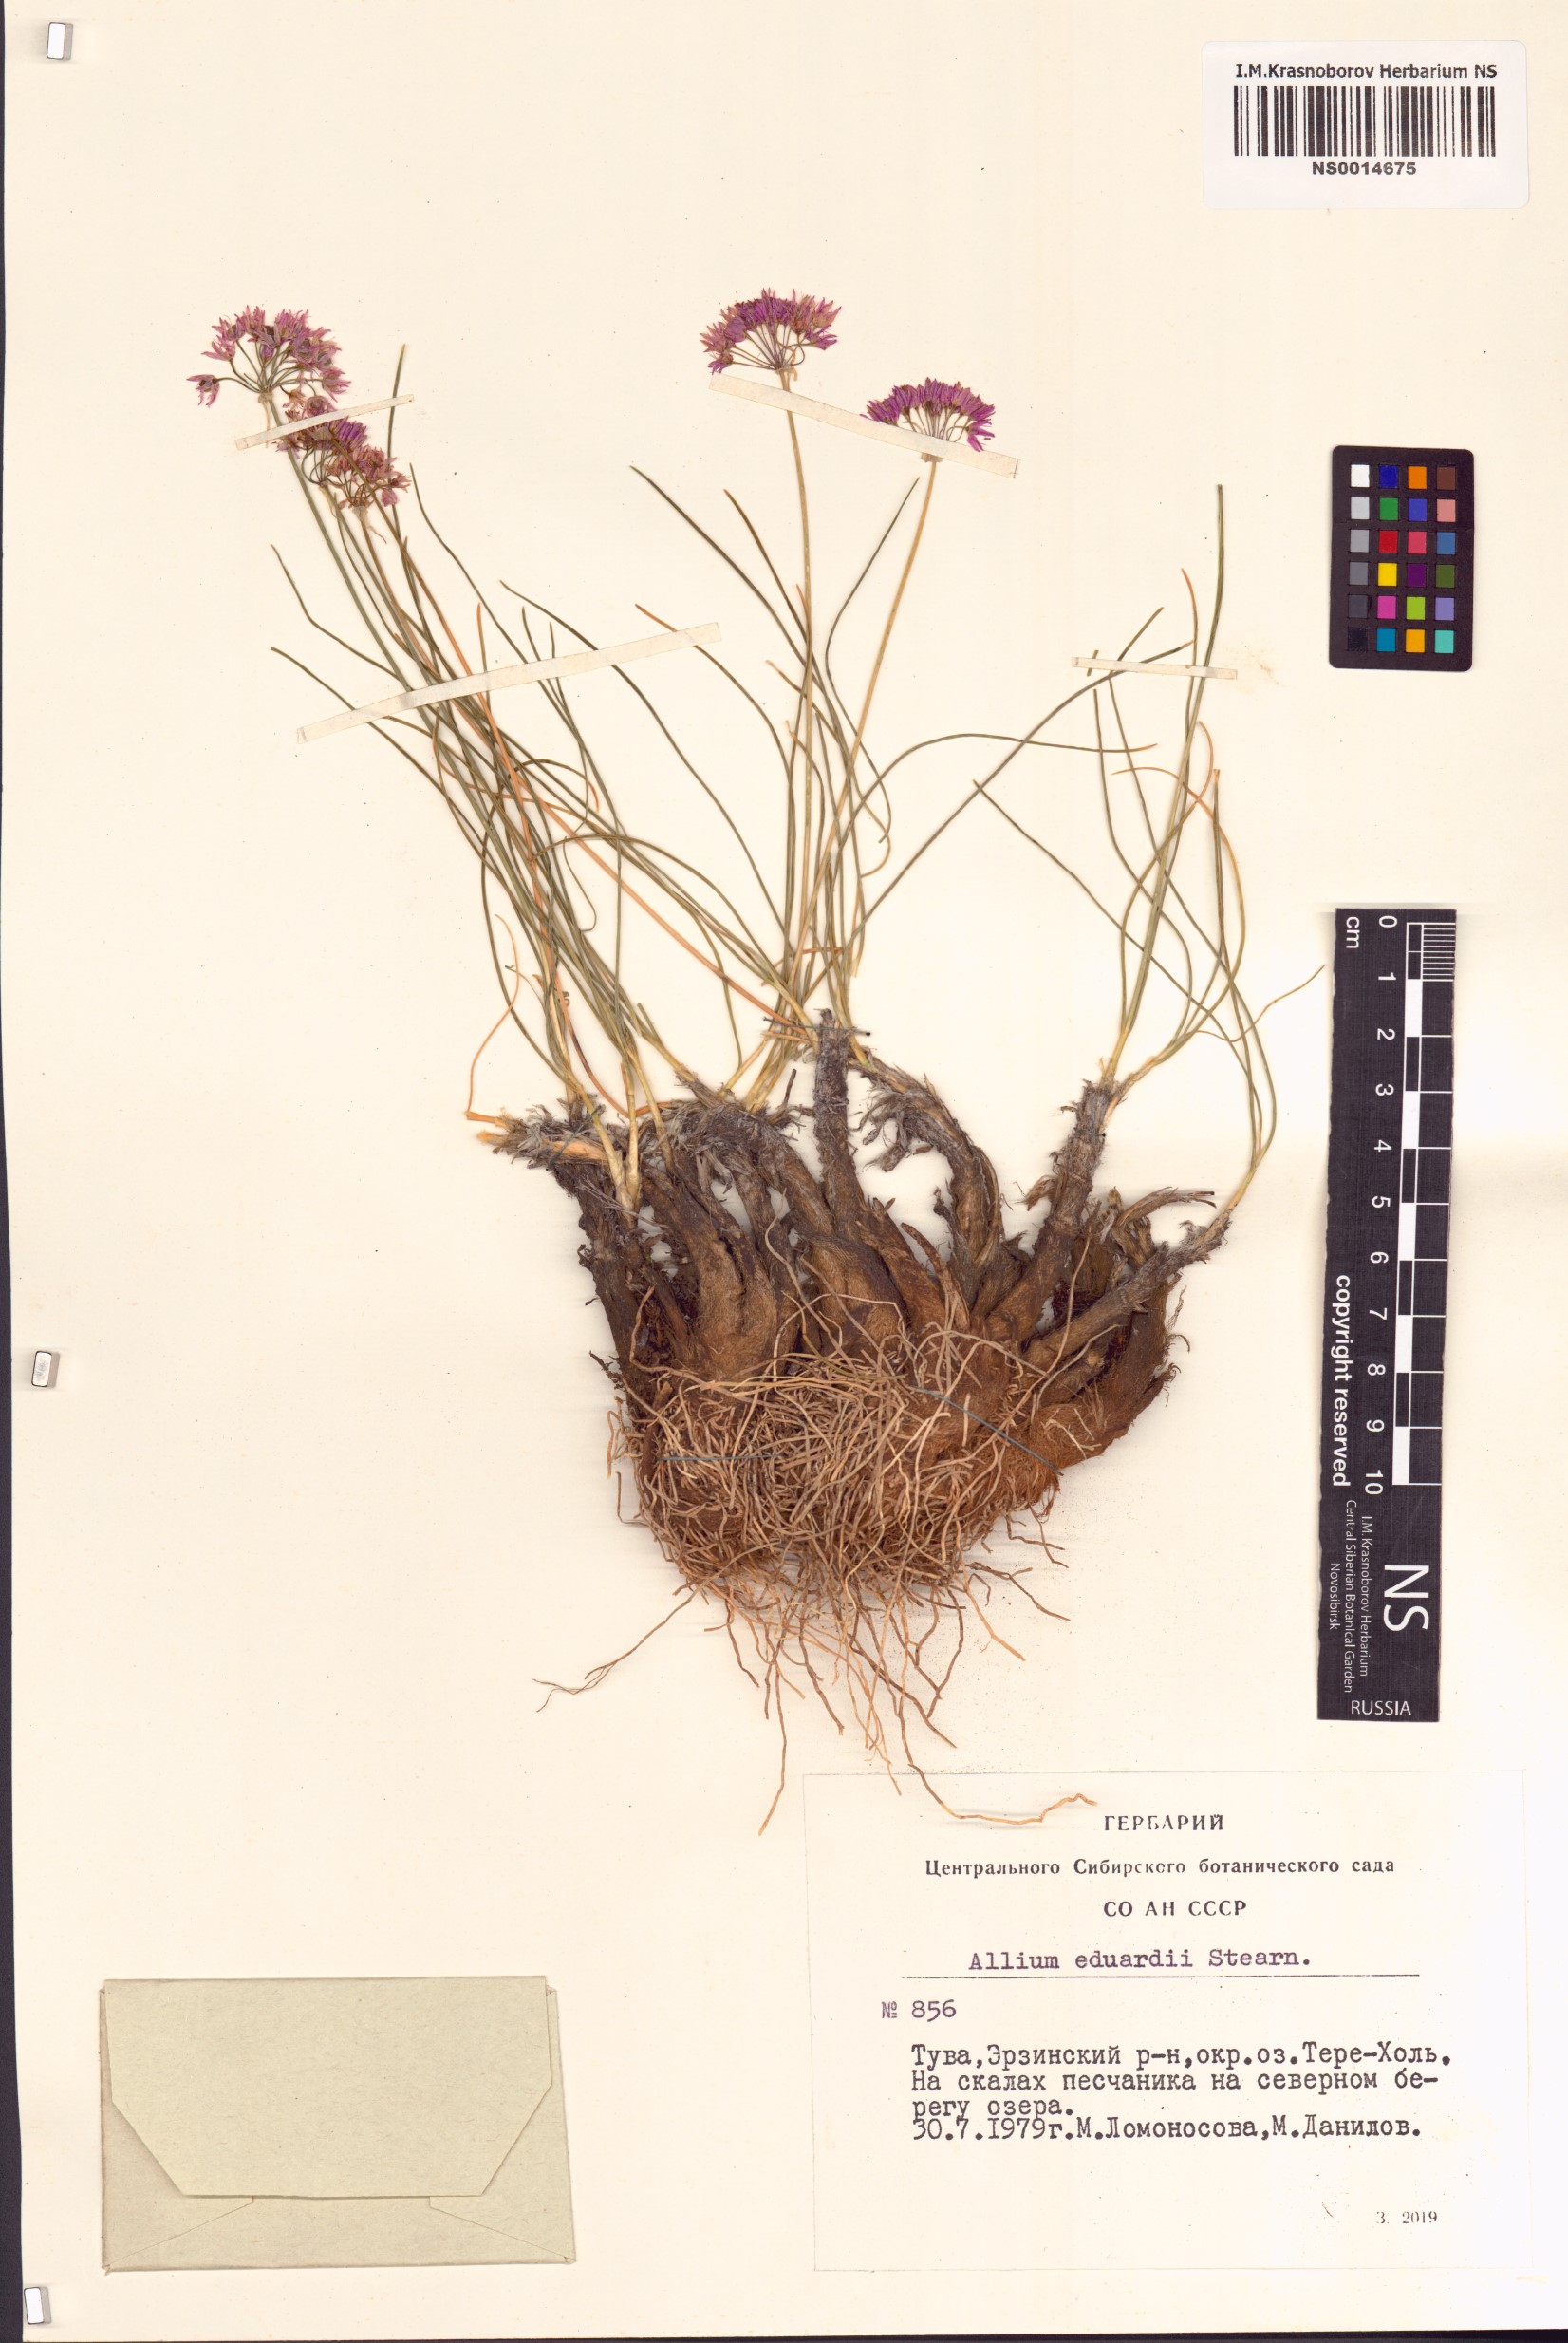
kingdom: Plantae
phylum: Tracheophyta
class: Liliopsida
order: Asparagales
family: Amaryllidaceae
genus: Allium
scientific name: Allium eduardi
